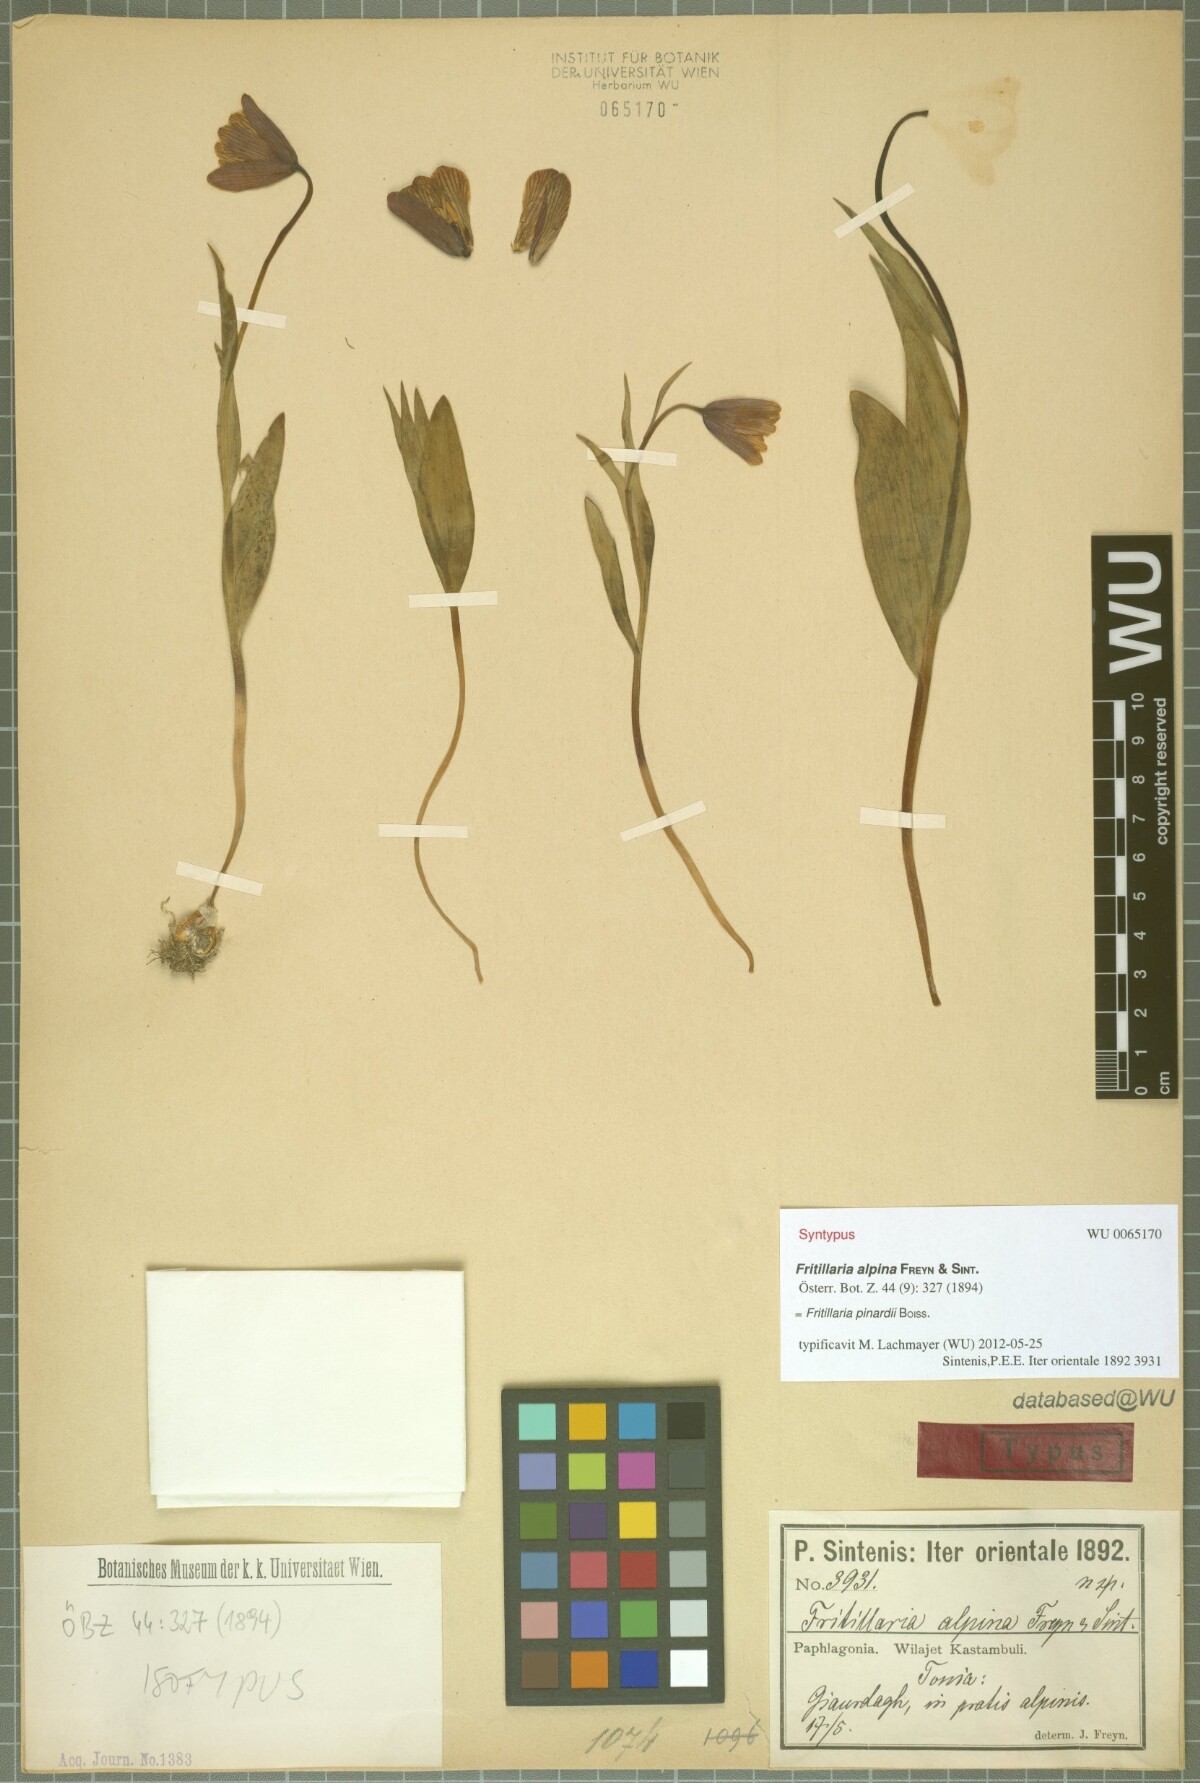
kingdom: Plantae
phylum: Tracheophyta
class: Liliopsida
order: Liliales
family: Liliaceae
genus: Fritillaria
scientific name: Fritillaria pinardii
